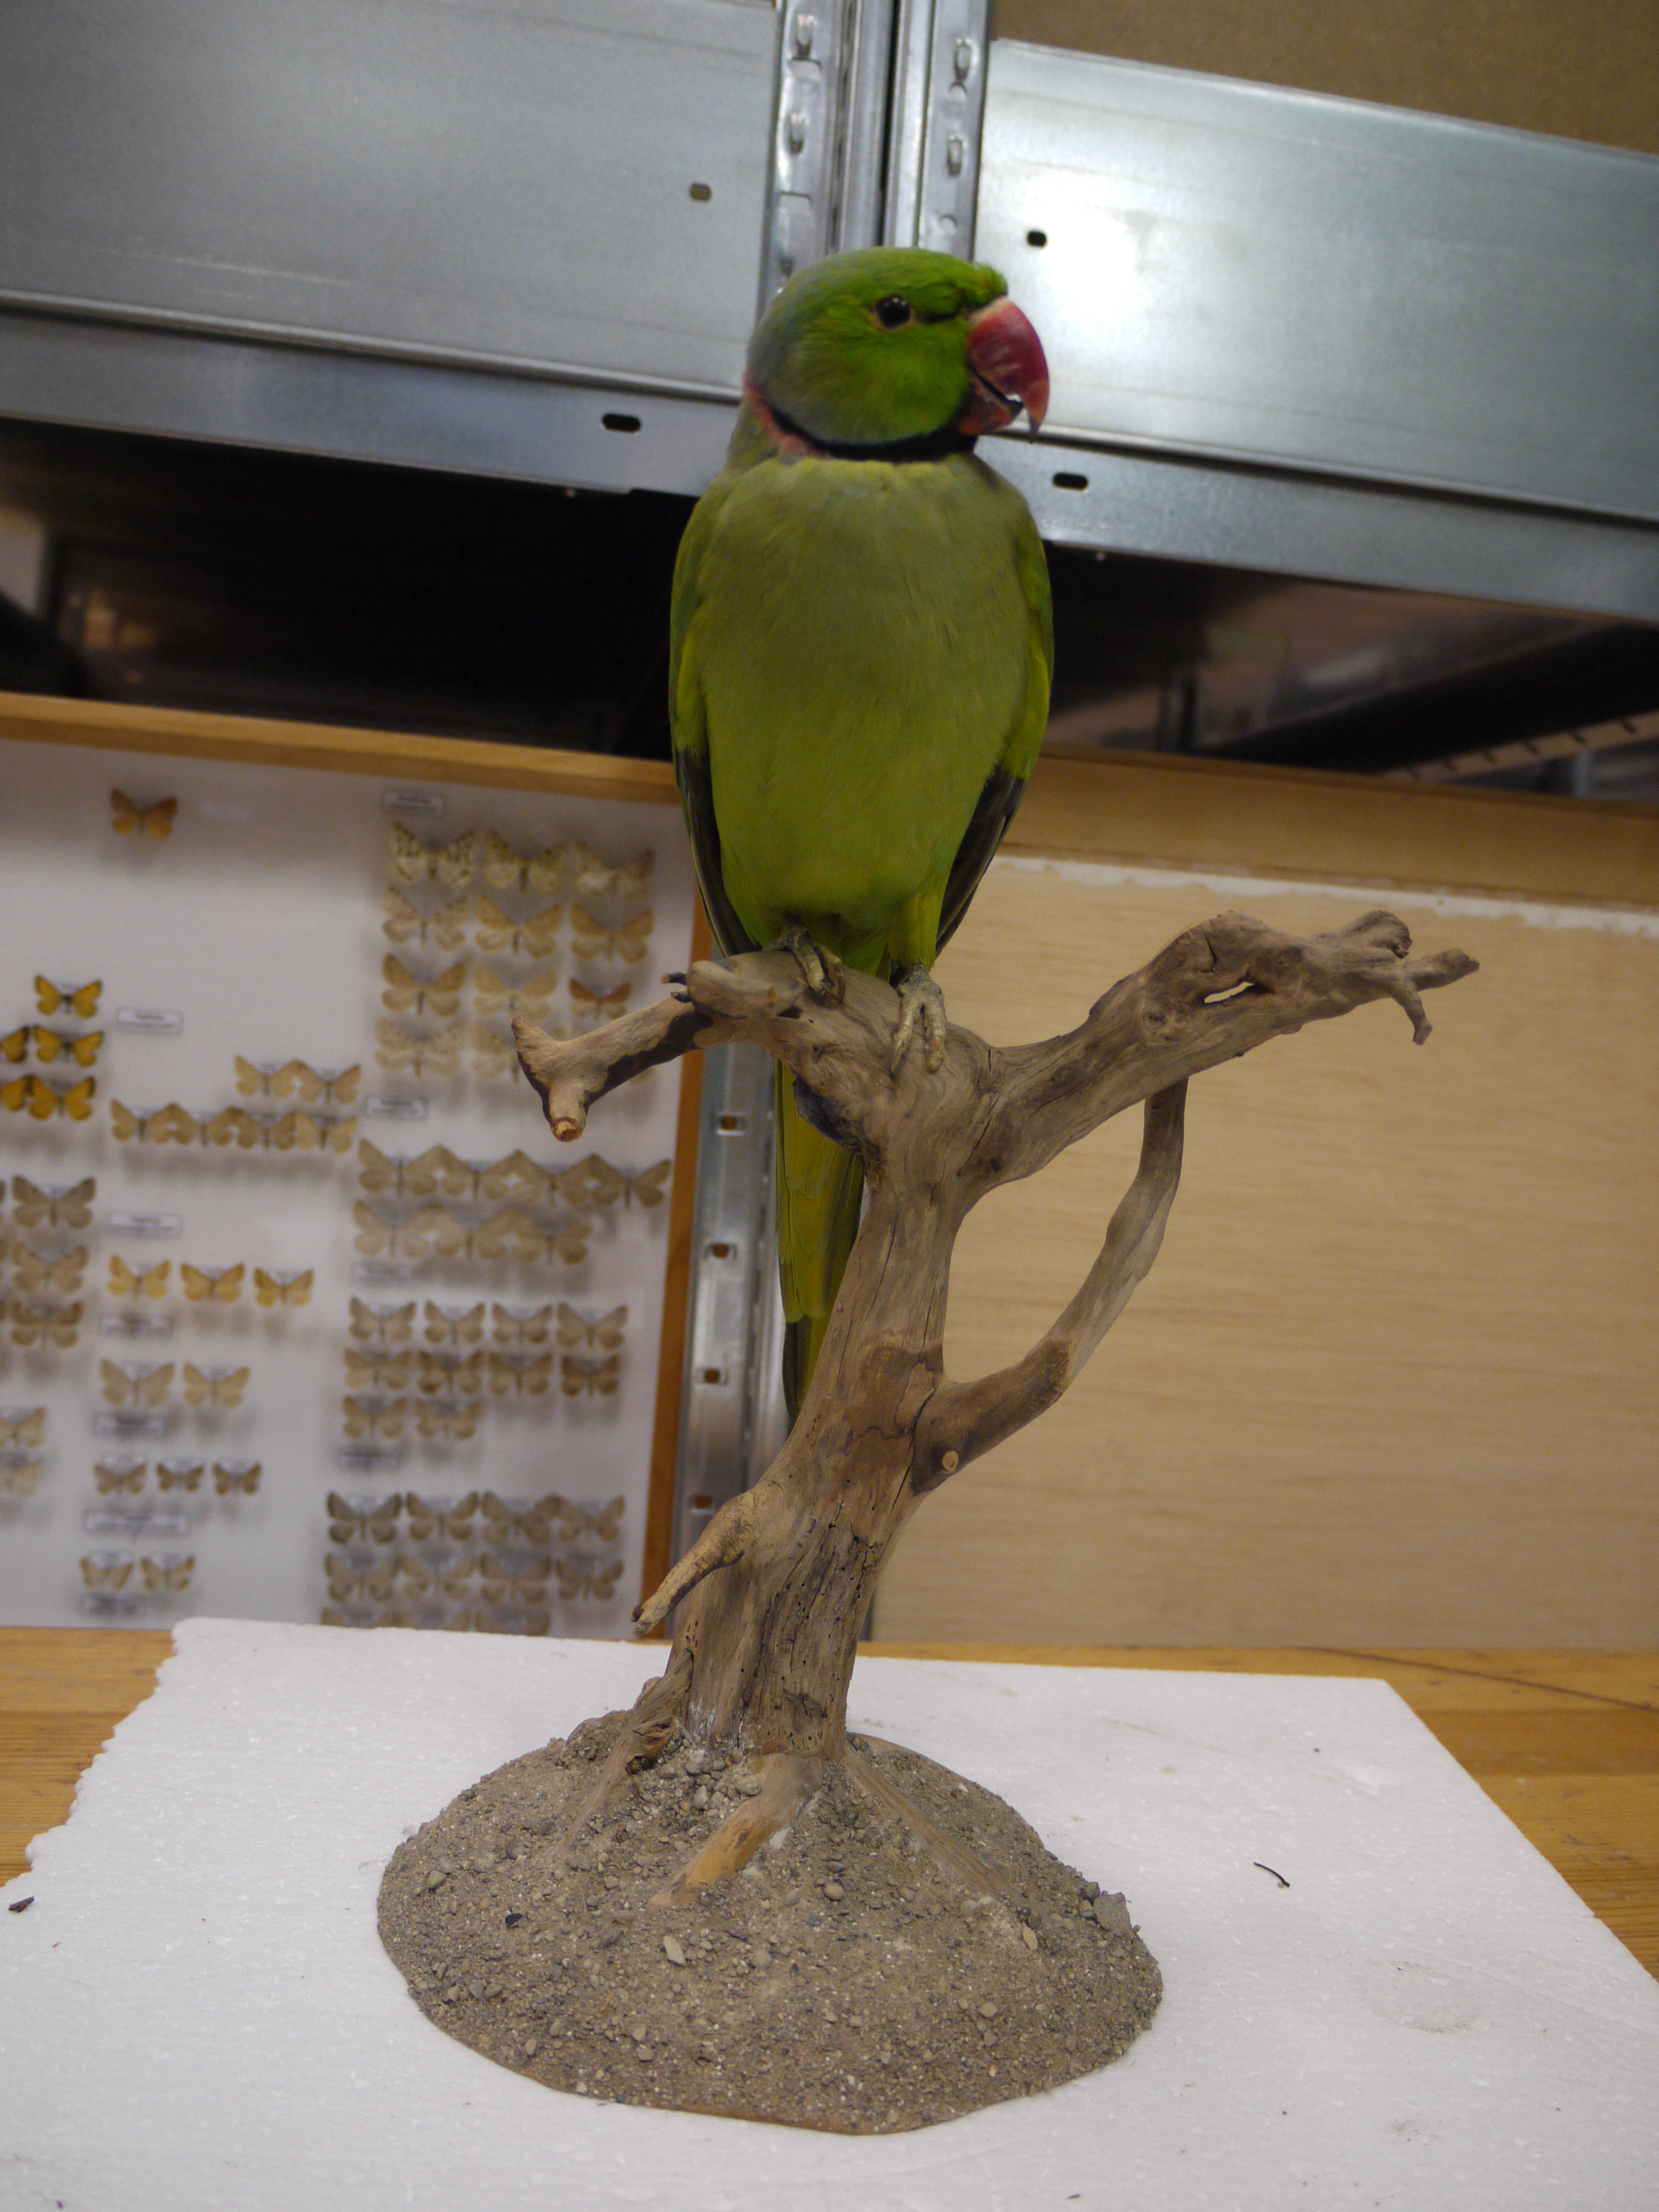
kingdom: Animalia
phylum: Chordata
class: Aves
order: Psittaciformes
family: Psittacidae
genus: Psittacula
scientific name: Psittacula krameri
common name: Rose-ringed parakeet
